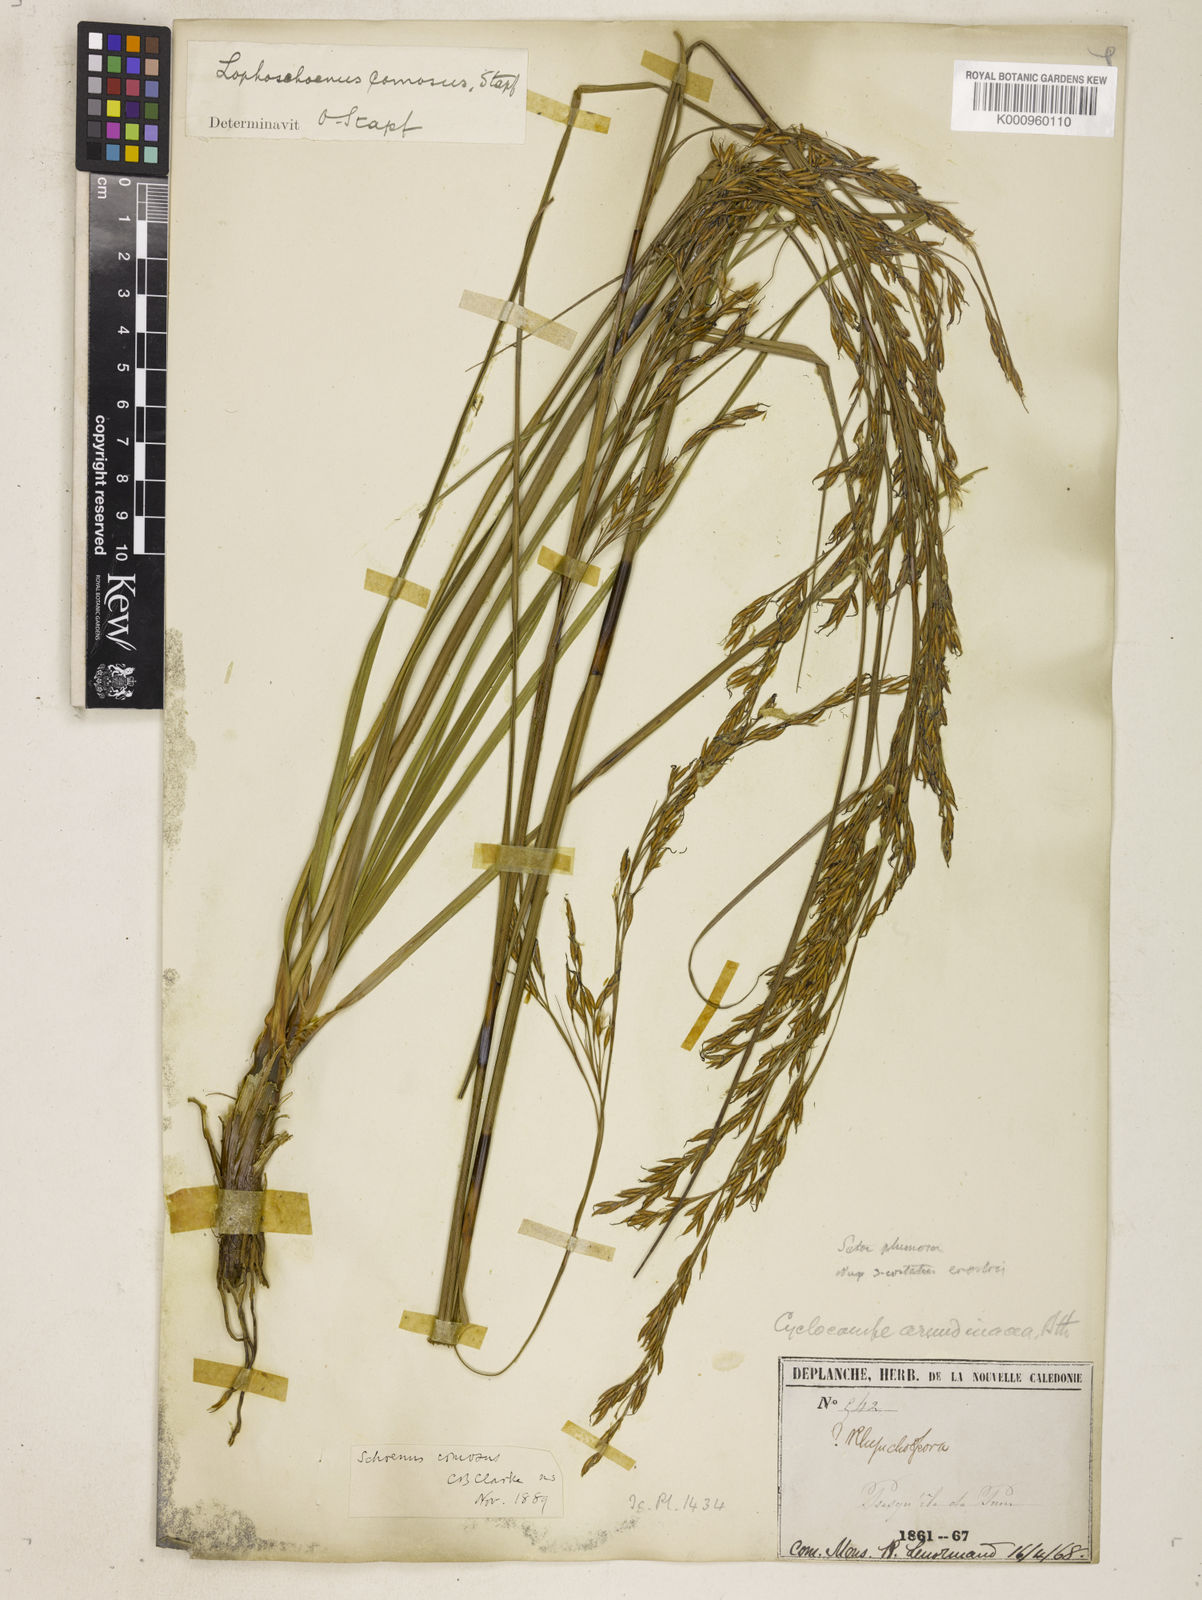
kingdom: Plantae
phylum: Tracheophyta
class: Liliopsida
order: Poales
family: Cyperaceae
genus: Costularia
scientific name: Costularia
